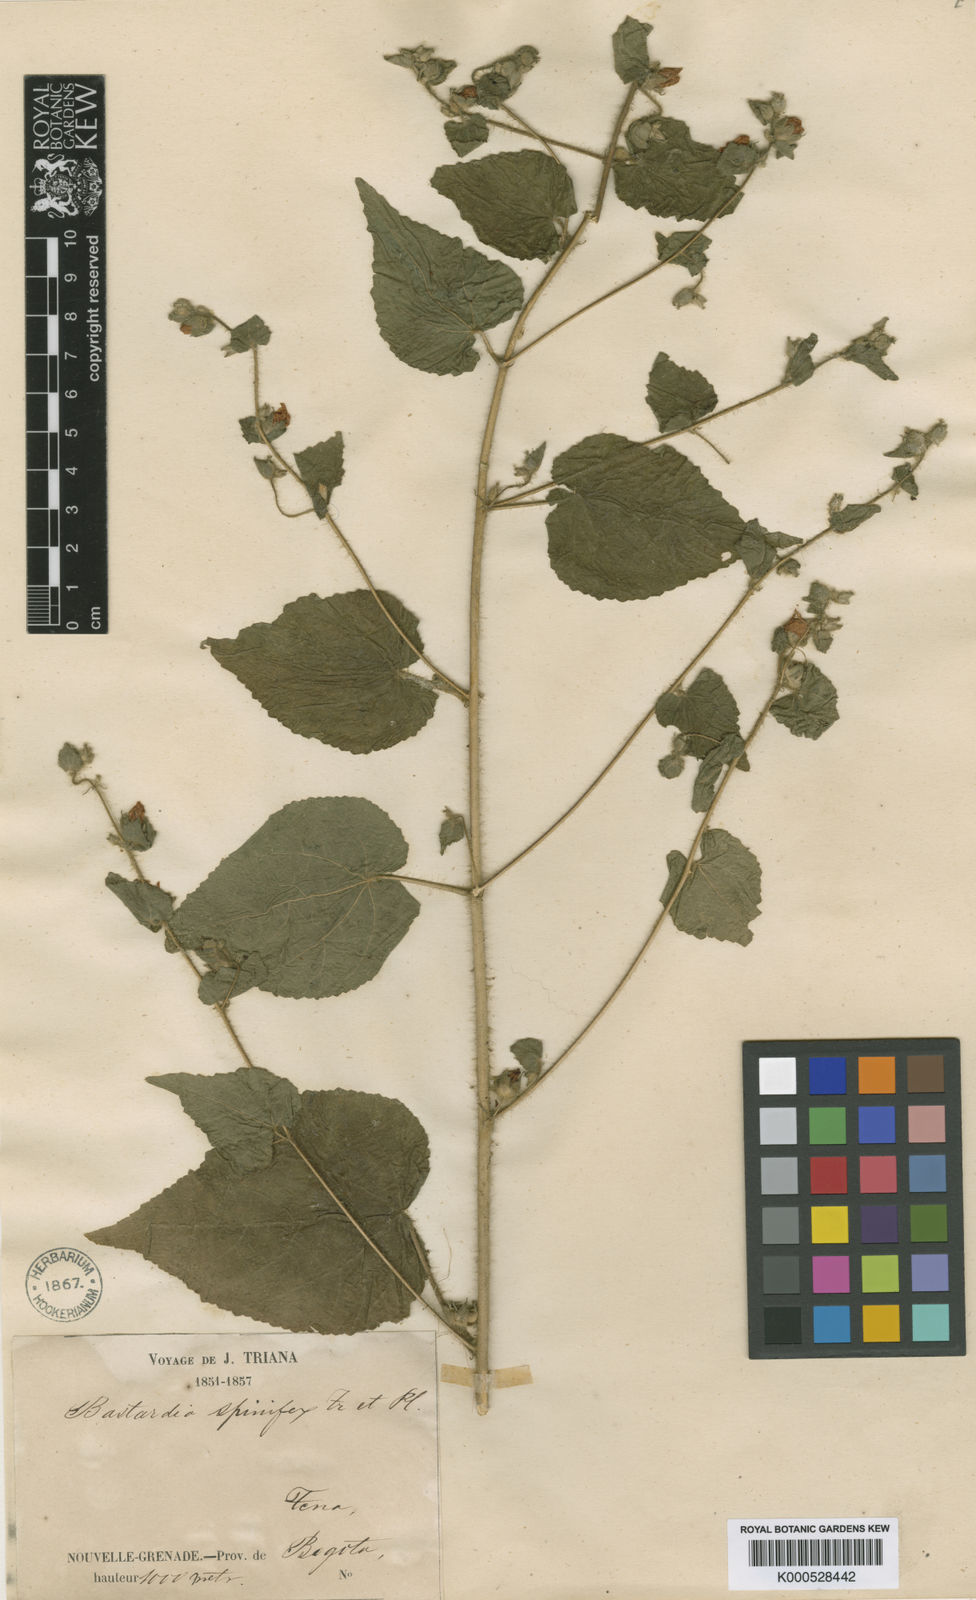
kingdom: Plantae
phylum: Tracheophyta
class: Magnoliopsida
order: Malvales
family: Malvaceae
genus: Abutilon
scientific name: Abutilon bivalve
